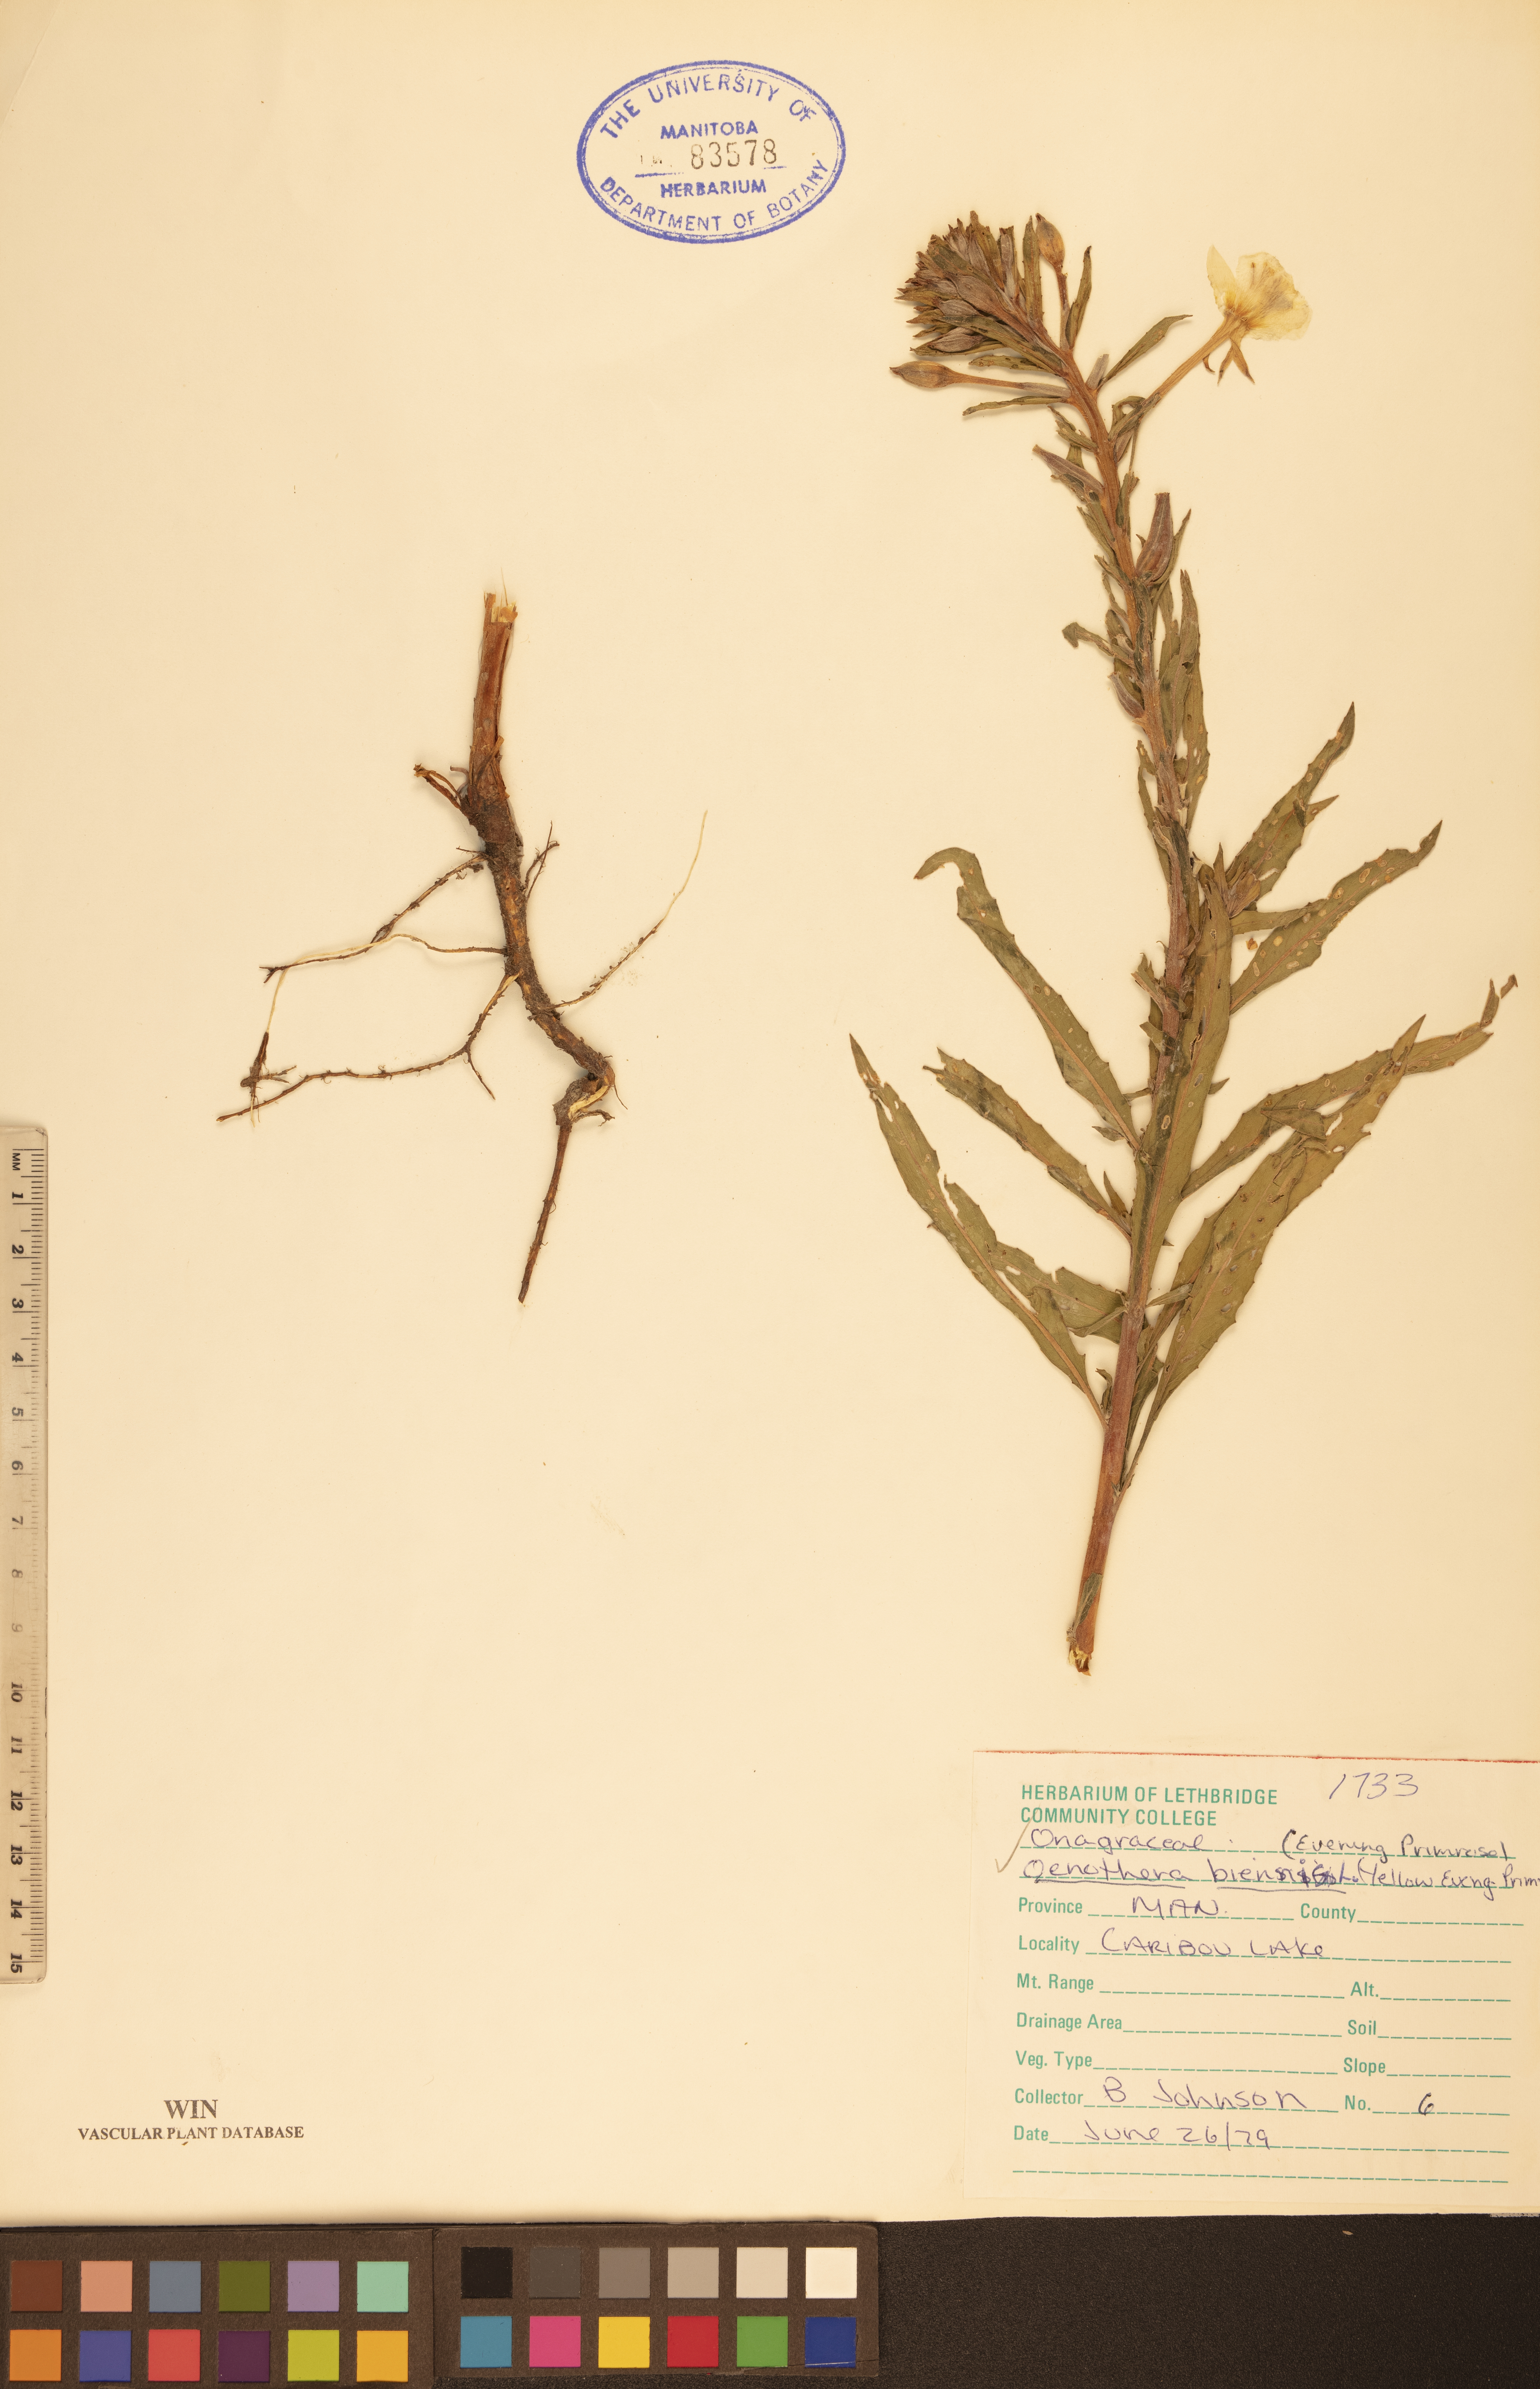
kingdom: Plantae
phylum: Tracheophyta
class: Magnoliopsida
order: Myrtales
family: Onagraceae
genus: Oenothera
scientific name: Oenothera biennis
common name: Common evening-primrose
